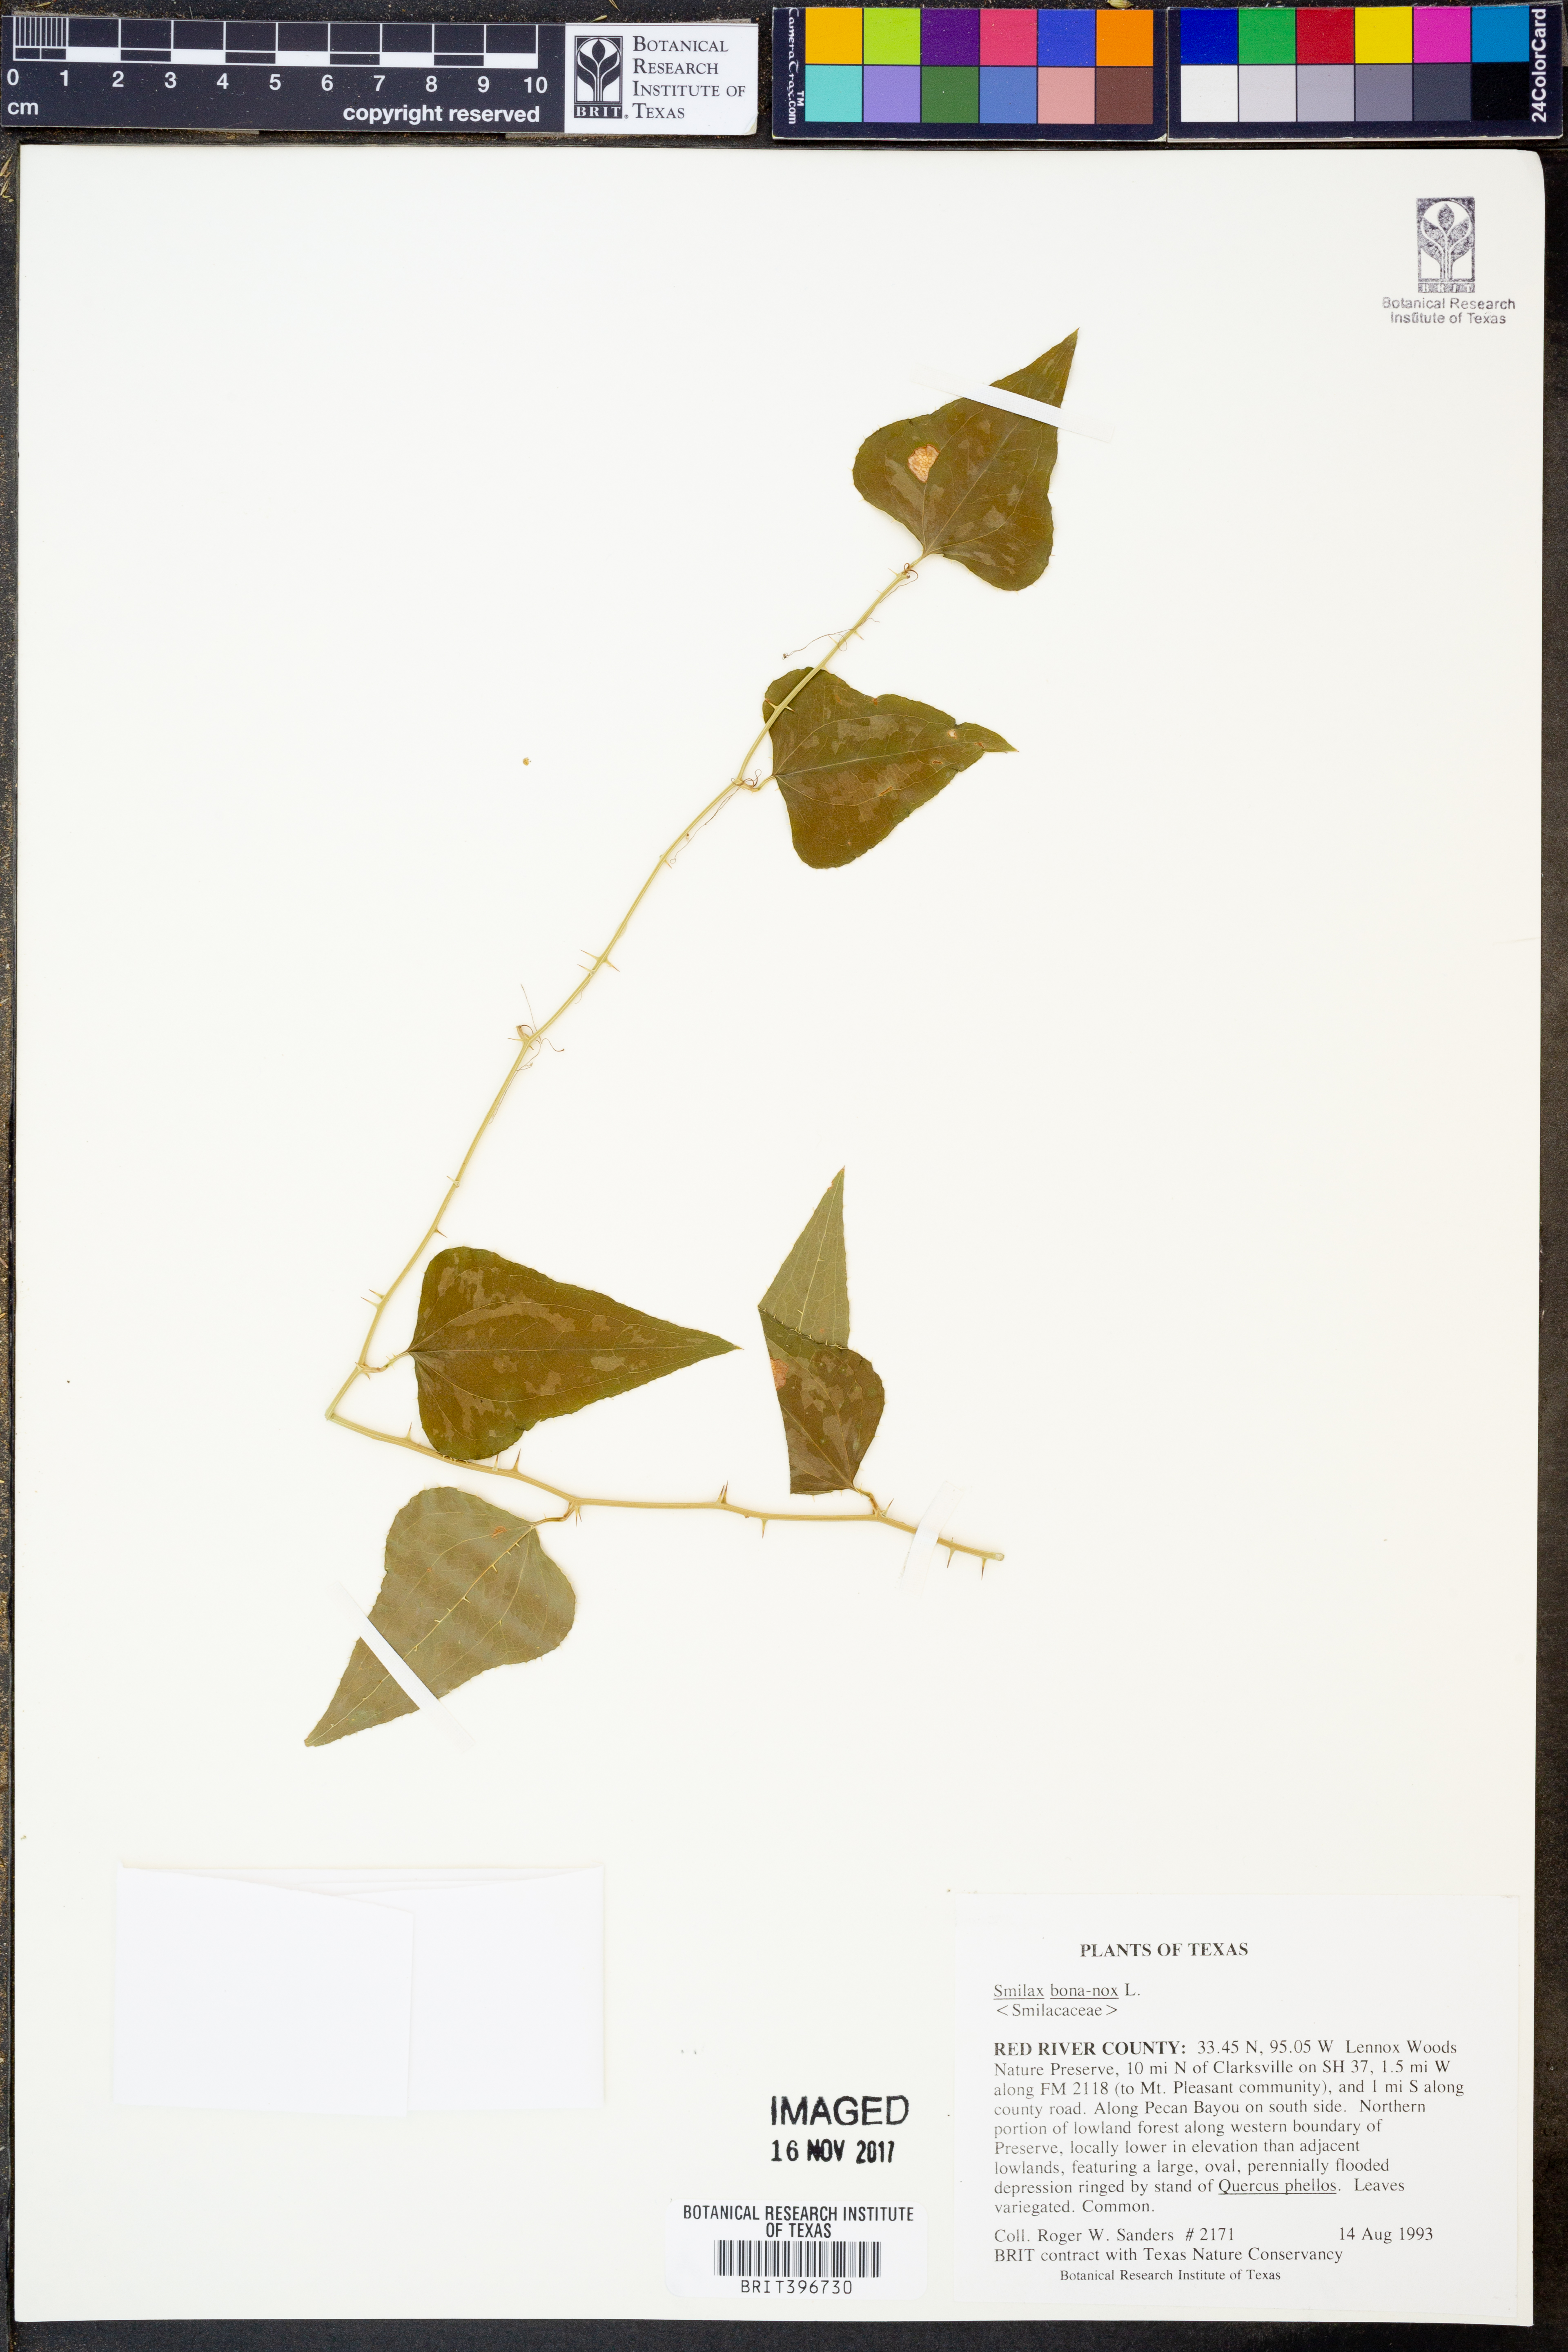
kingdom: Plantae
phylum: Tracheophyta
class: Liliopsida
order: Liliales
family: Smilacaceae
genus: Smilax
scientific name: Smilax bona-nox
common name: Catbrier
